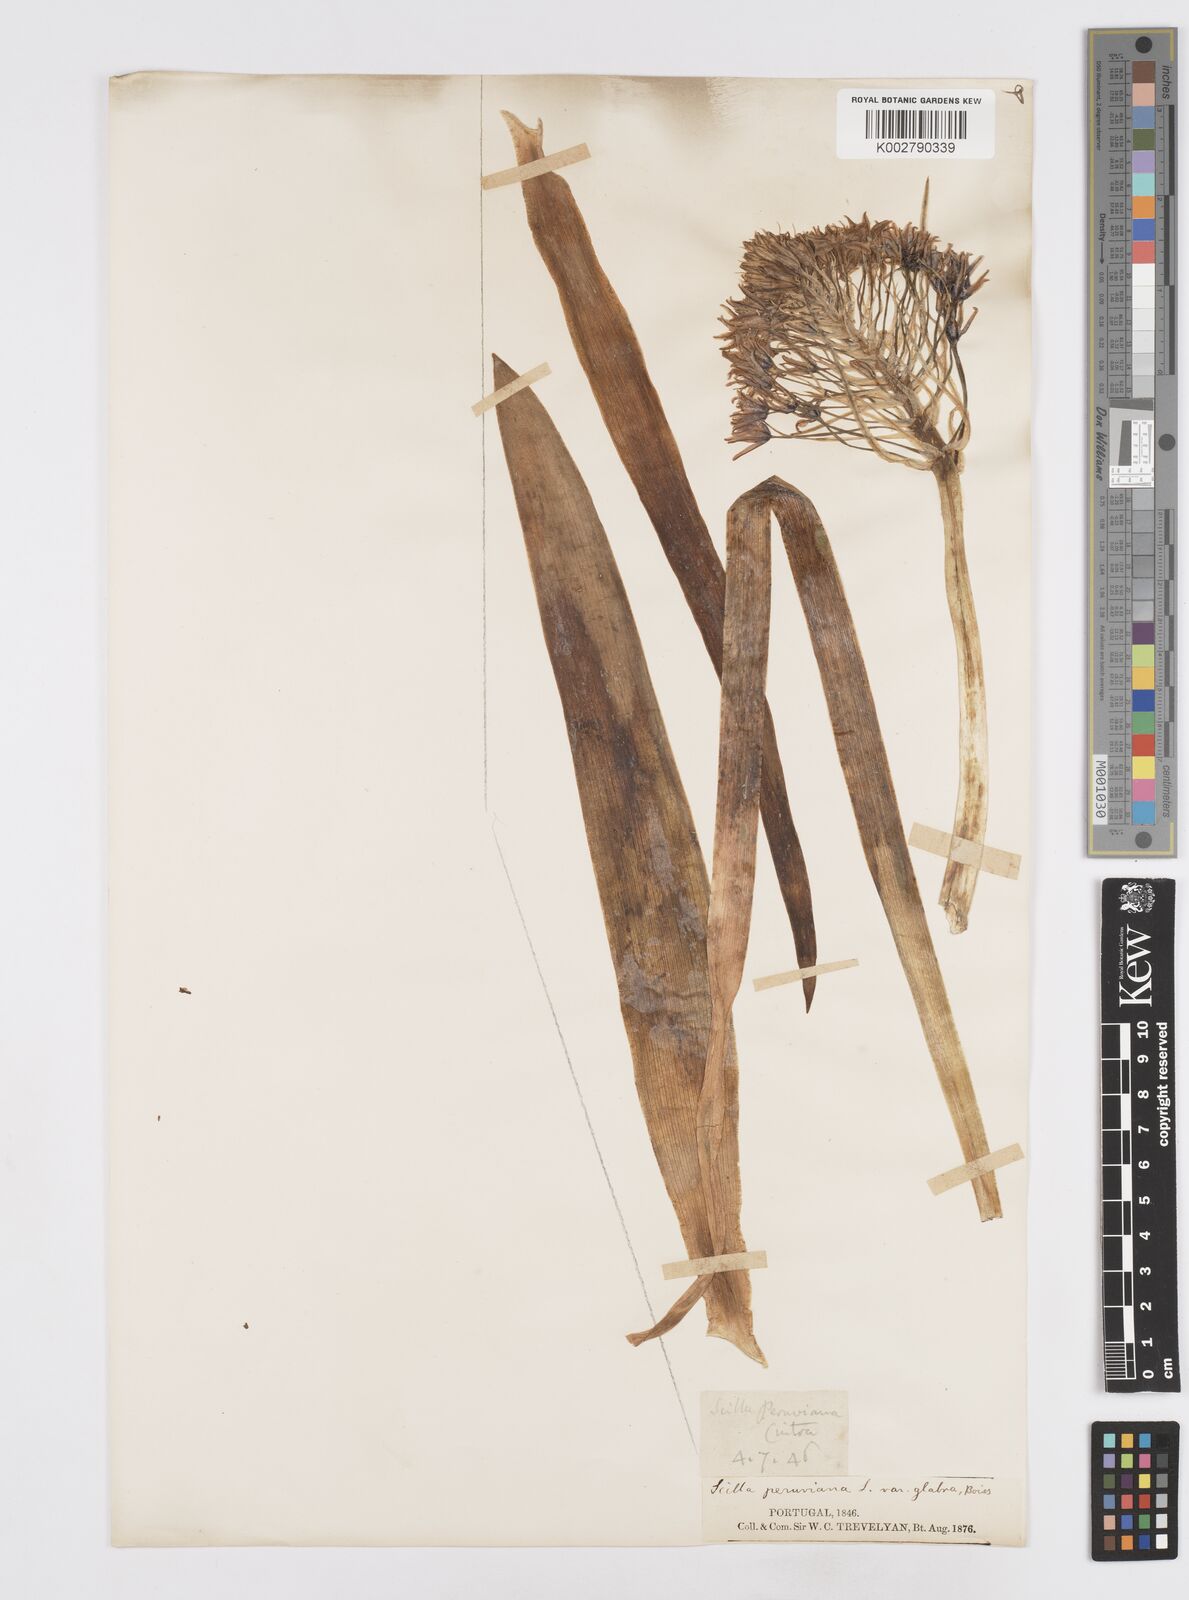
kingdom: Plantae
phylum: Tracheophyta
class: Liliopsida
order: Asparagales
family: Asparagaceae
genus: Scilla
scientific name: Scilla
